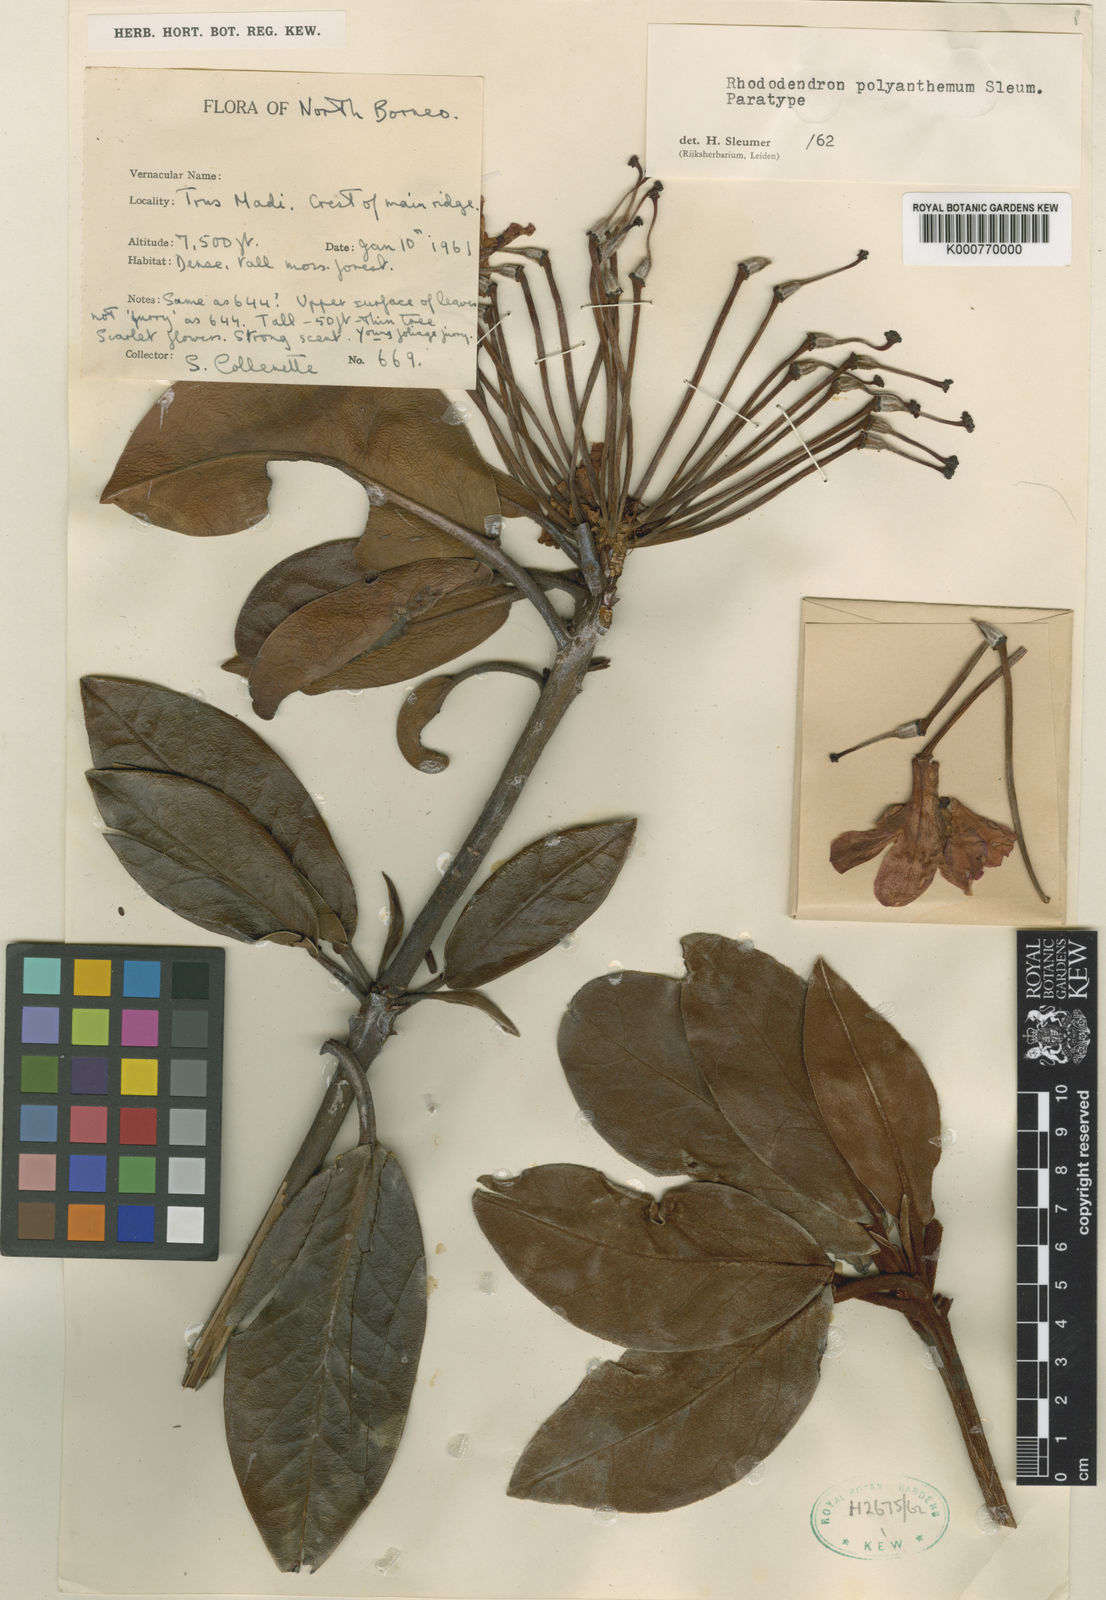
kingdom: Plantae
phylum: Tracheophyta
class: Magnoliopsida
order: Ericales
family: Ericaceae
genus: Rhododendron
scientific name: Rhododendron polyanthemum
